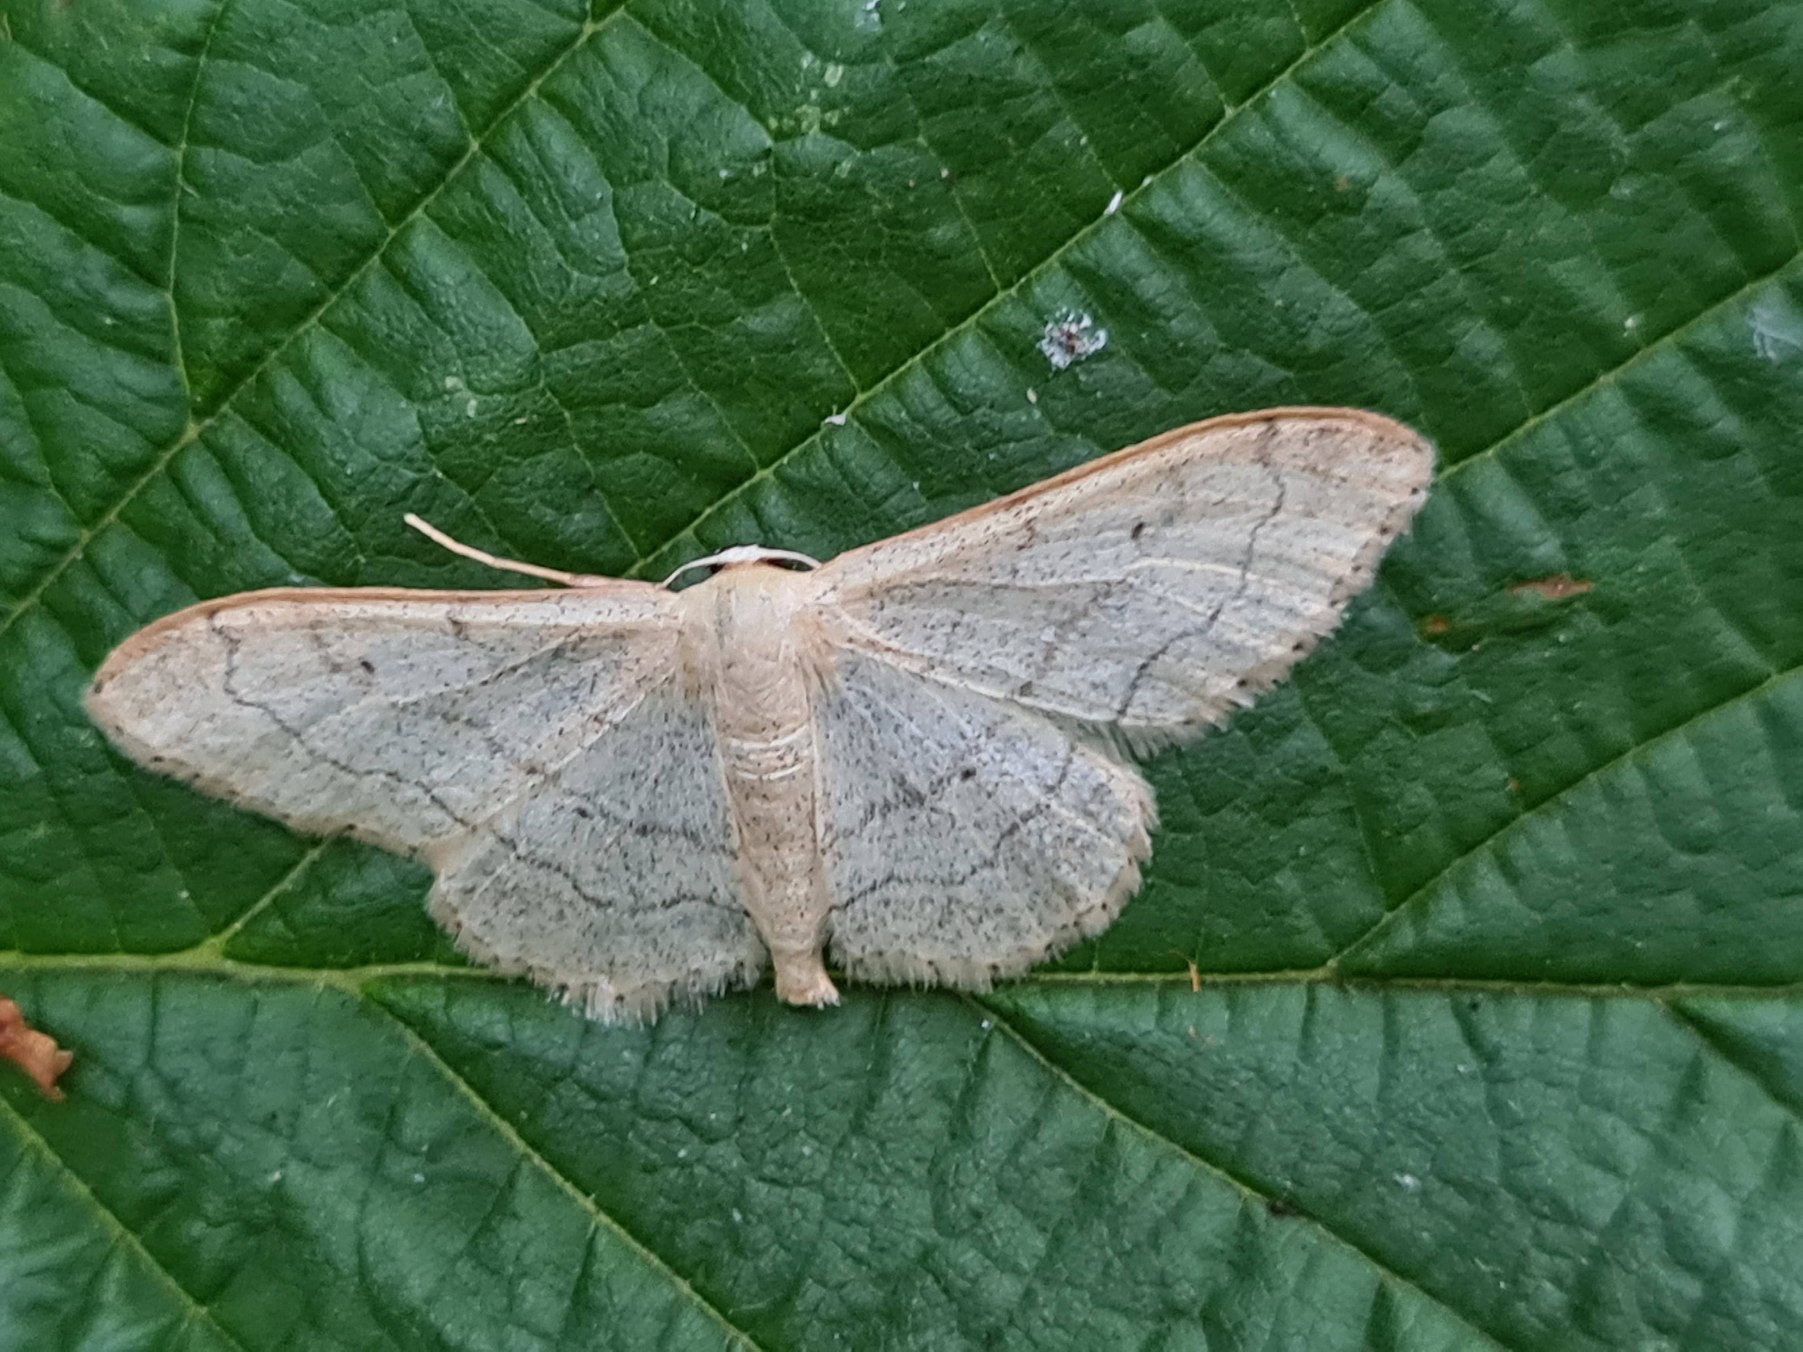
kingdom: Animalia
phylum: Arthropoda
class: Insecta
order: Lepidoptera
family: Geometridae
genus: Idaea
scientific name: Idaea aversata
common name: Vinkelstreget løvmåler
